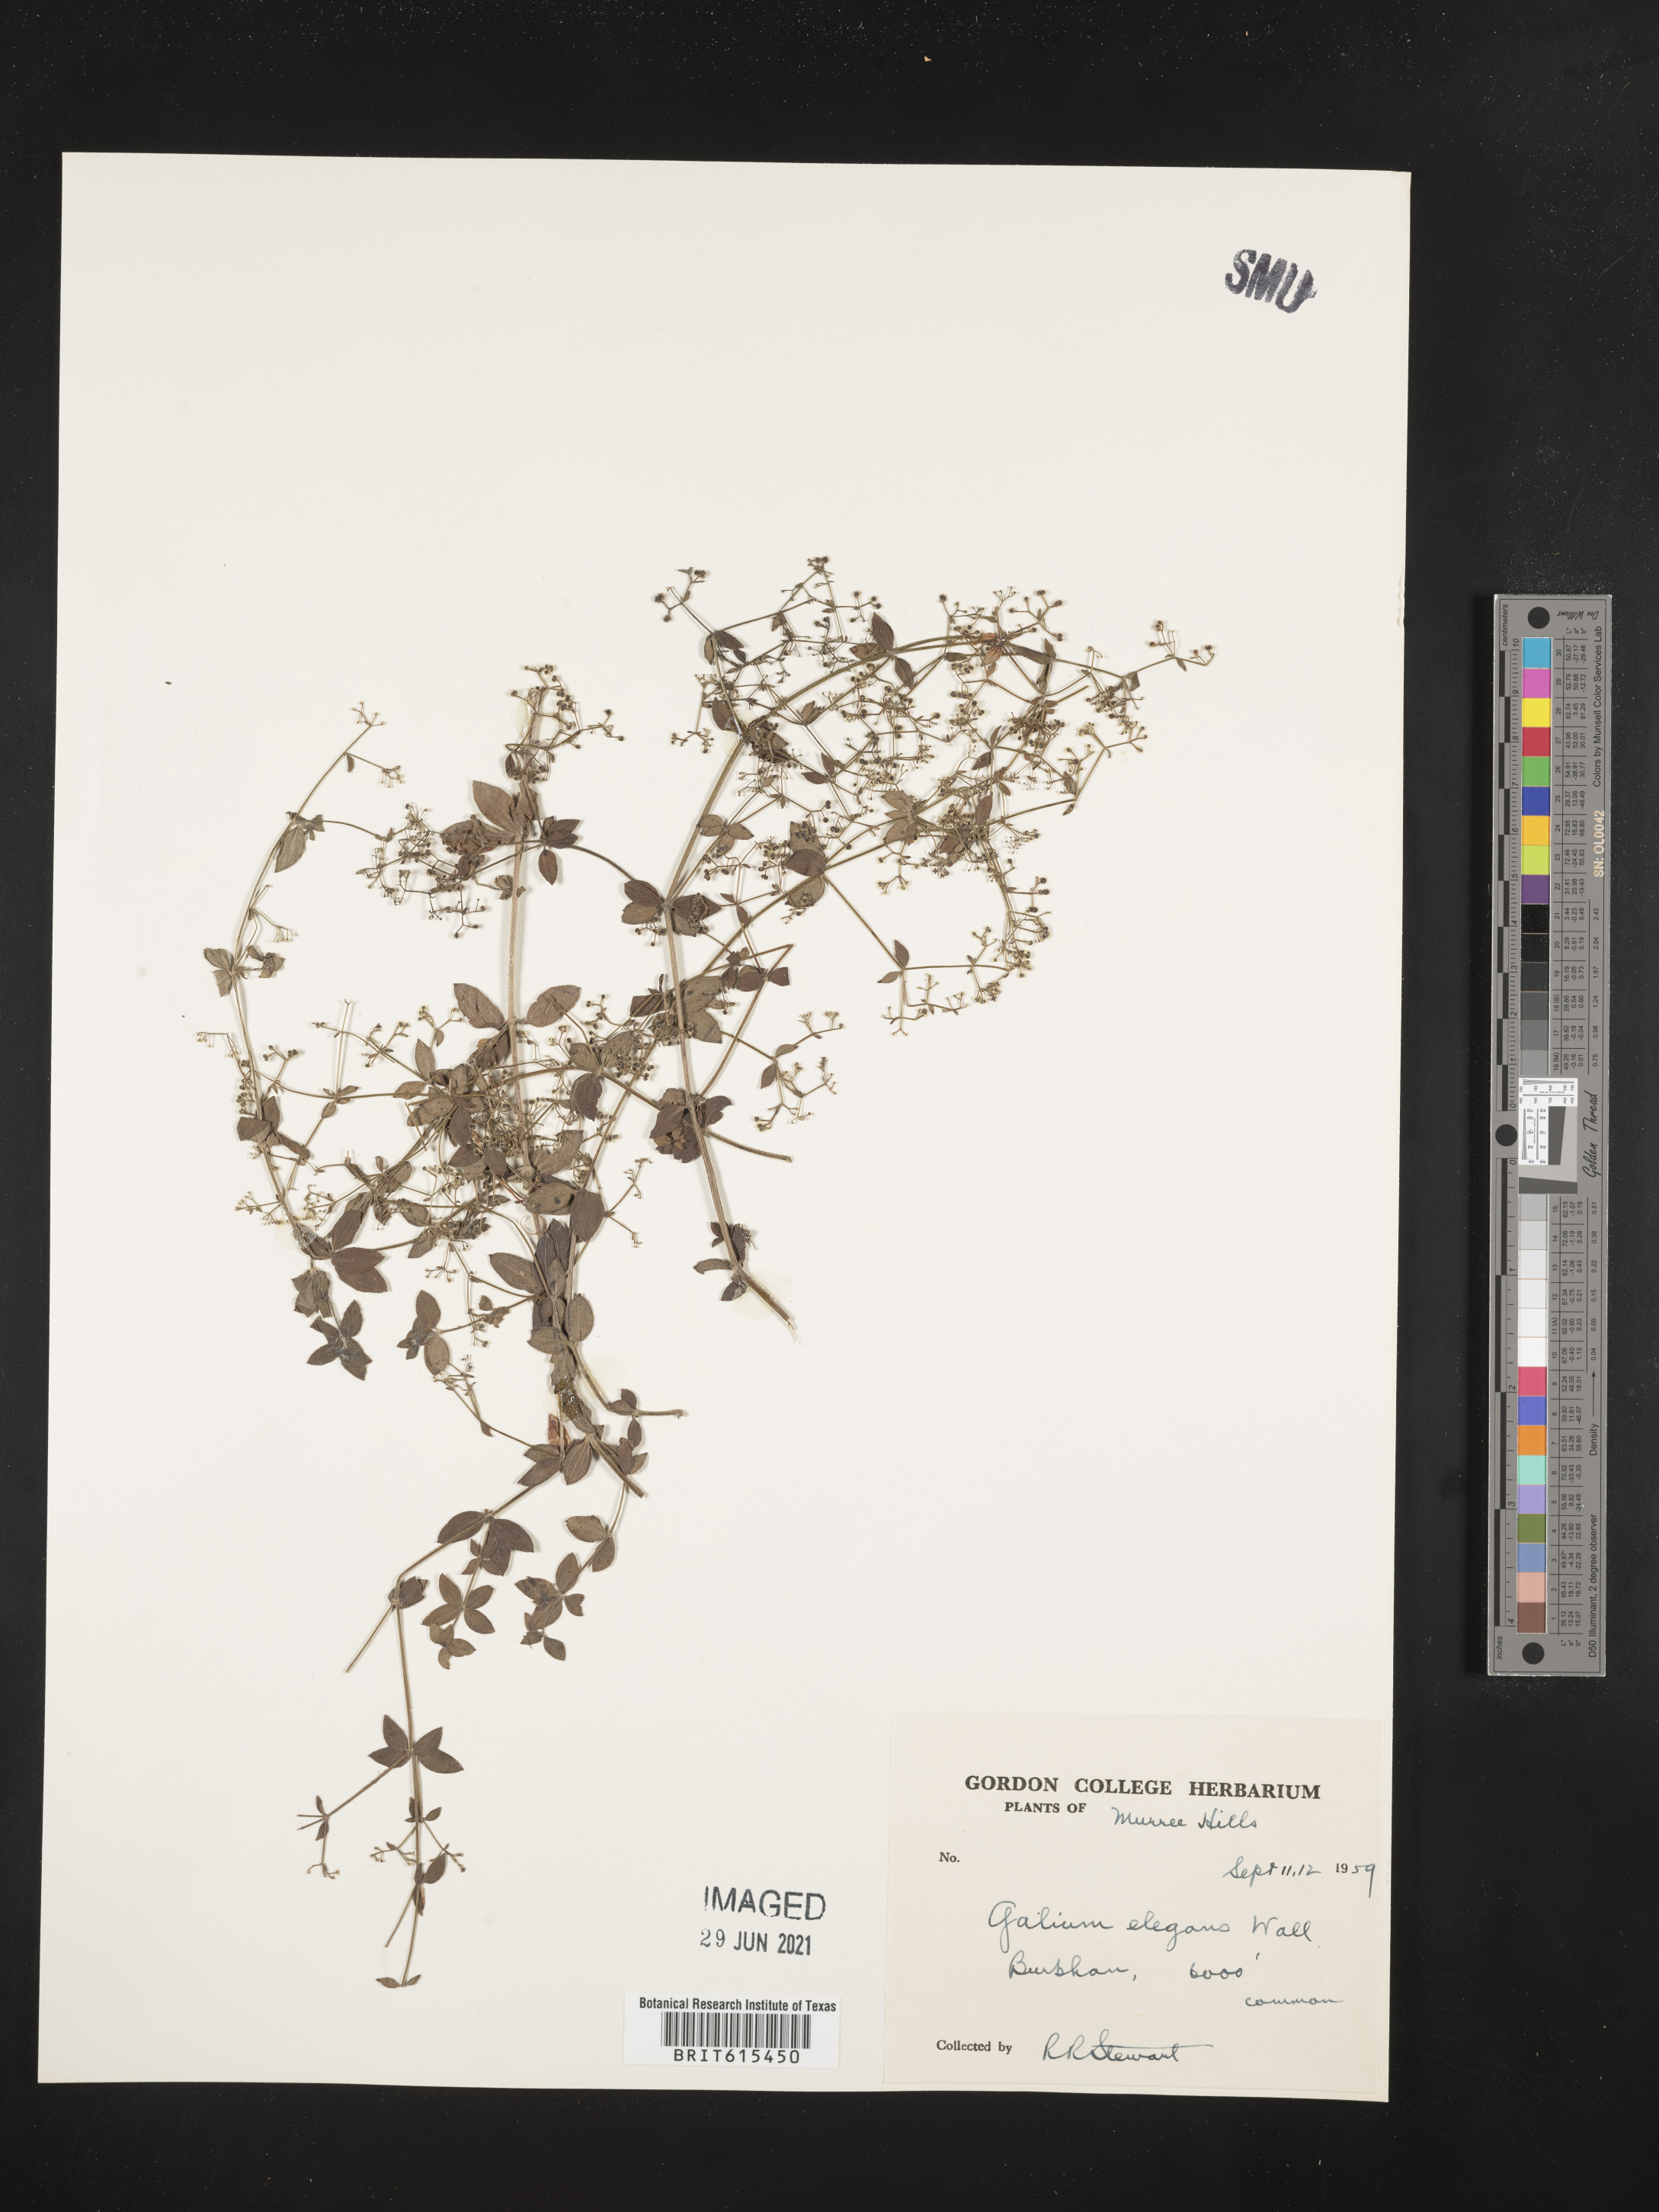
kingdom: Plantae
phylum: Tracheophyta
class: Magnoliopsida
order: Gentianales
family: Rubiaceae
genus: Galium
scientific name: Galium elegans
